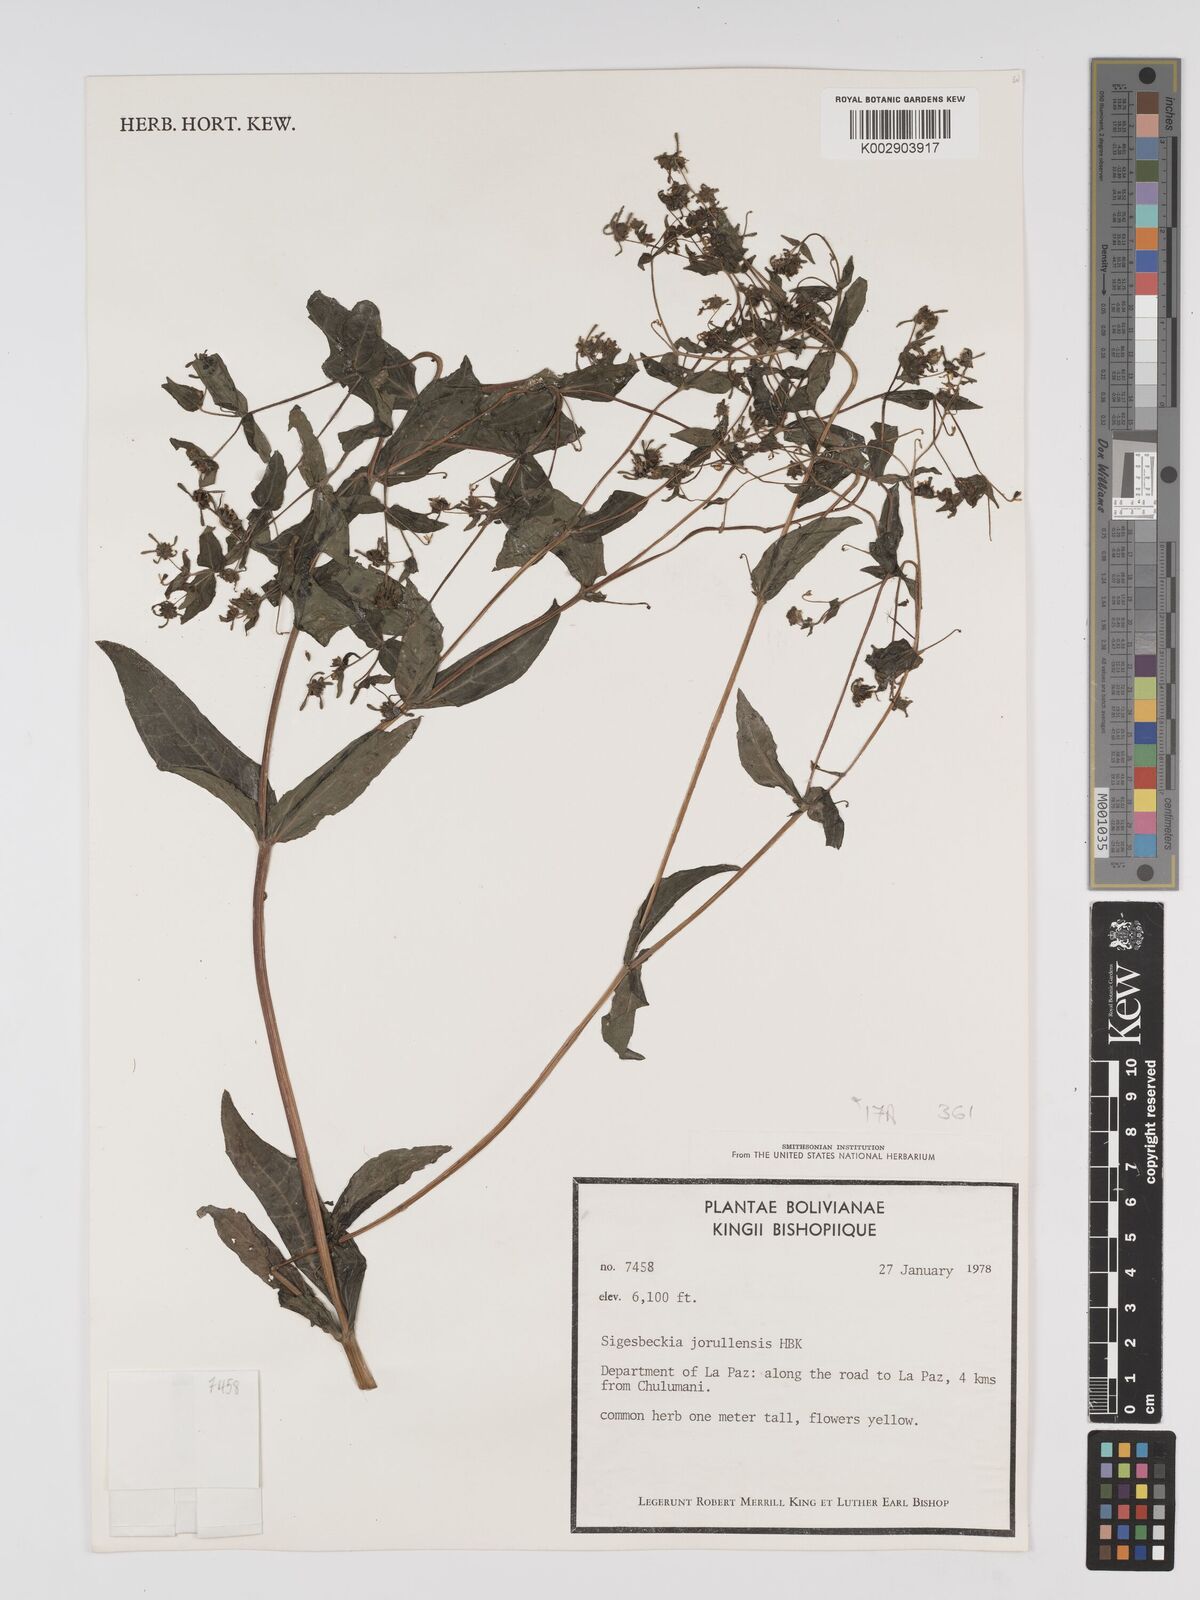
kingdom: Plantae
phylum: Tracheophyta
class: Magnoliopsida
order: Asterales
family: Asteraceae
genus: Sigesbeckia
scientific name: Sigesbeckia jorullensis
